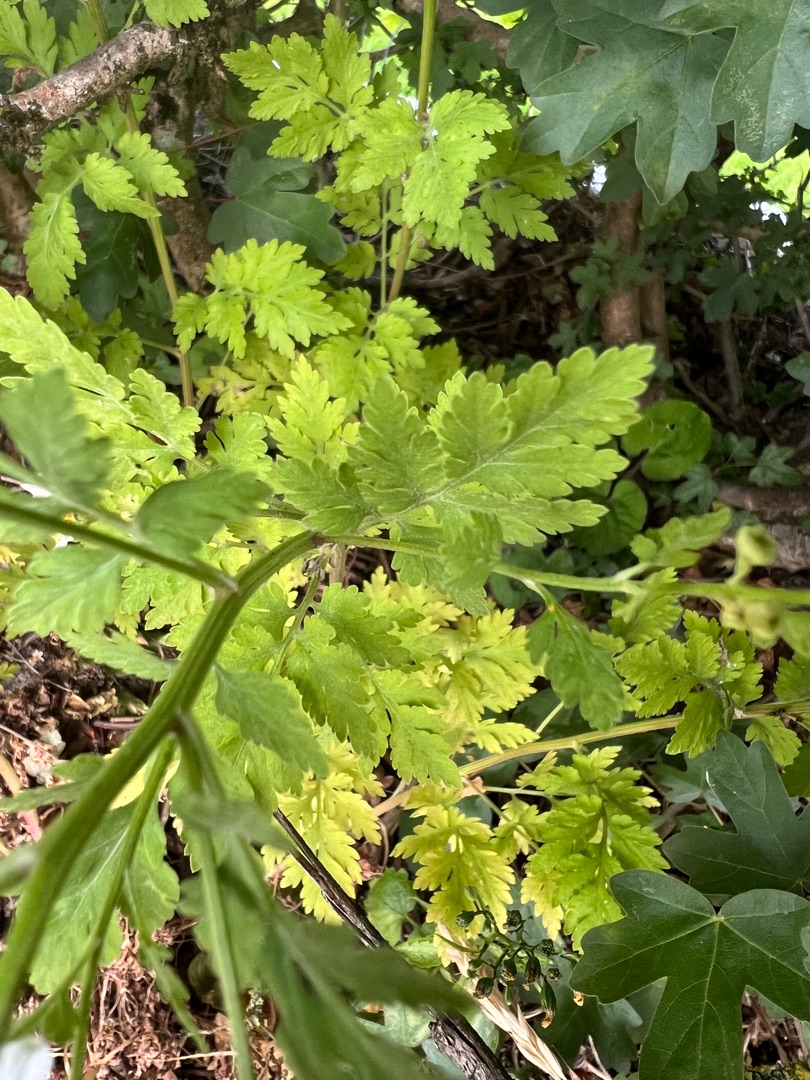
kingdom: Plantae
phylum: Tracheophyta
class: Magnoliopsida
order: Asterales
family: Asteraceae
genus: Tanacetum
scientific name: Tanacetum parthenium
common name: Matrem
